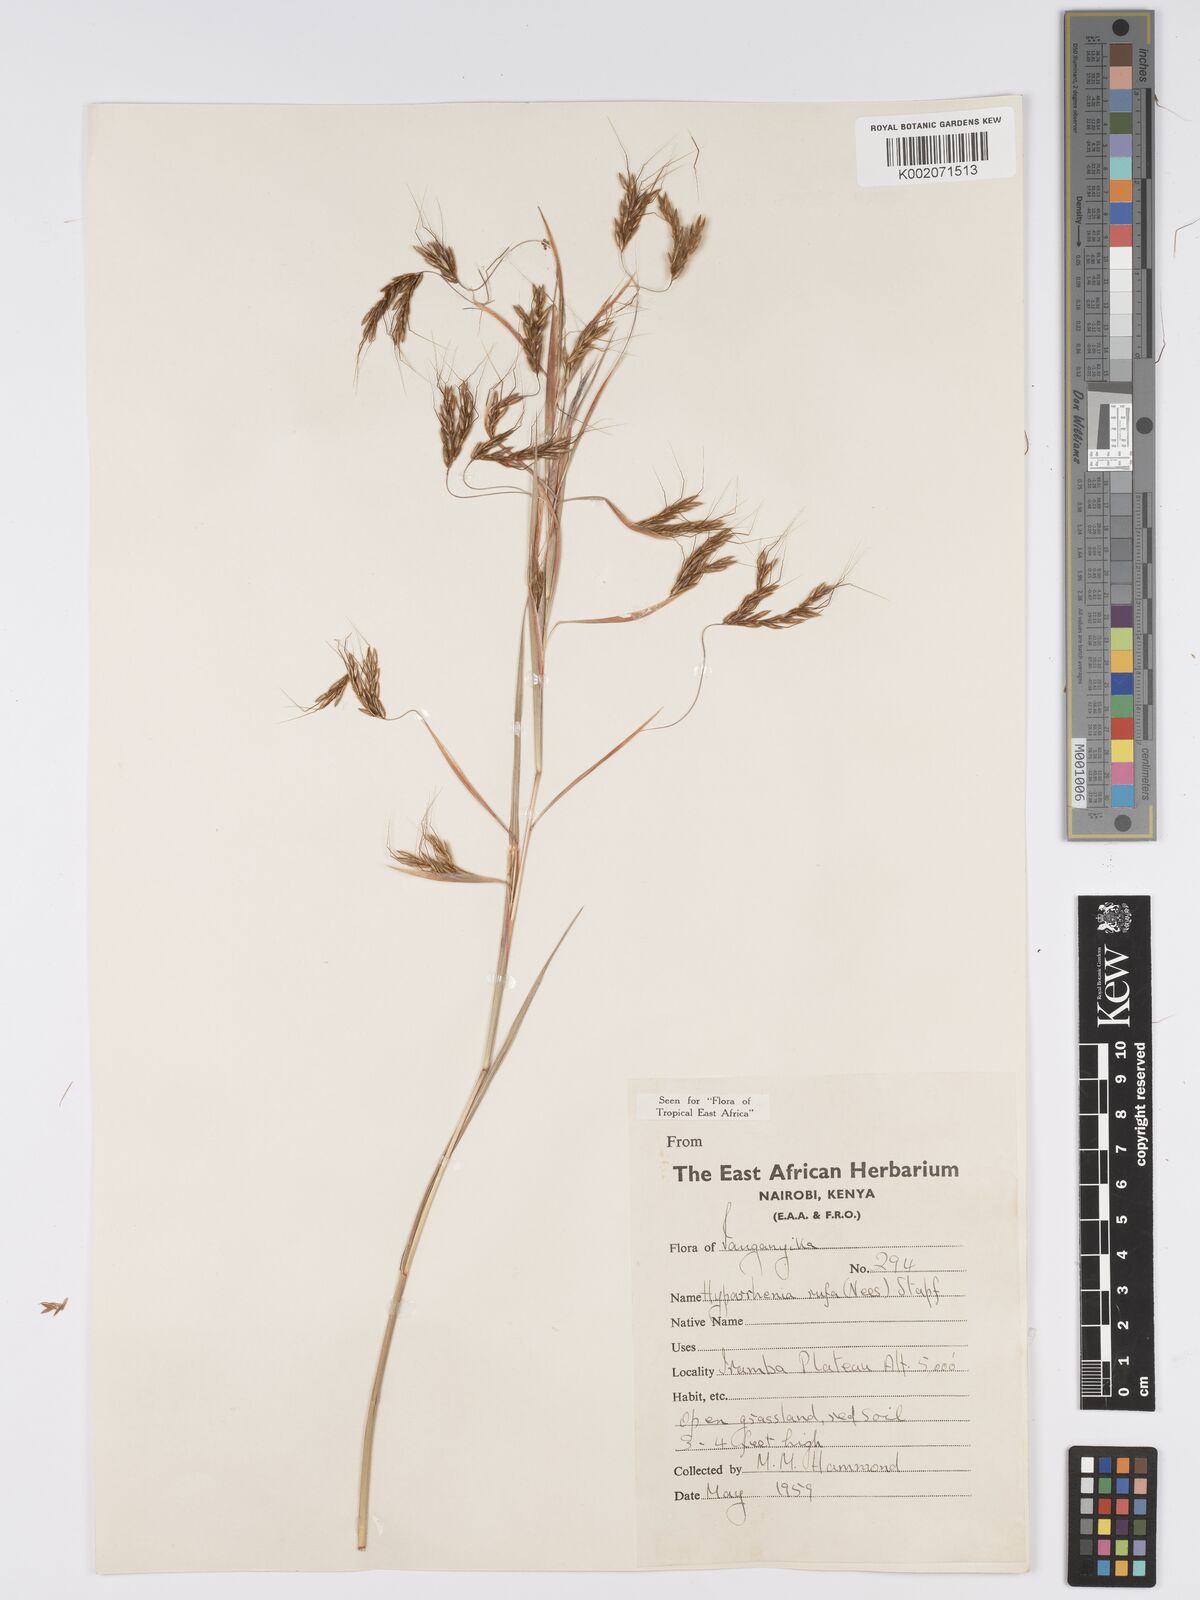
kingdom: Plantae
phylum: Tracheophyta
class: Liliopsida
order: Poales
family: Poaceae
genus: Hyparrhenia
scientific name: Hyparrhenia rufa
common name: Jaraguagrass
